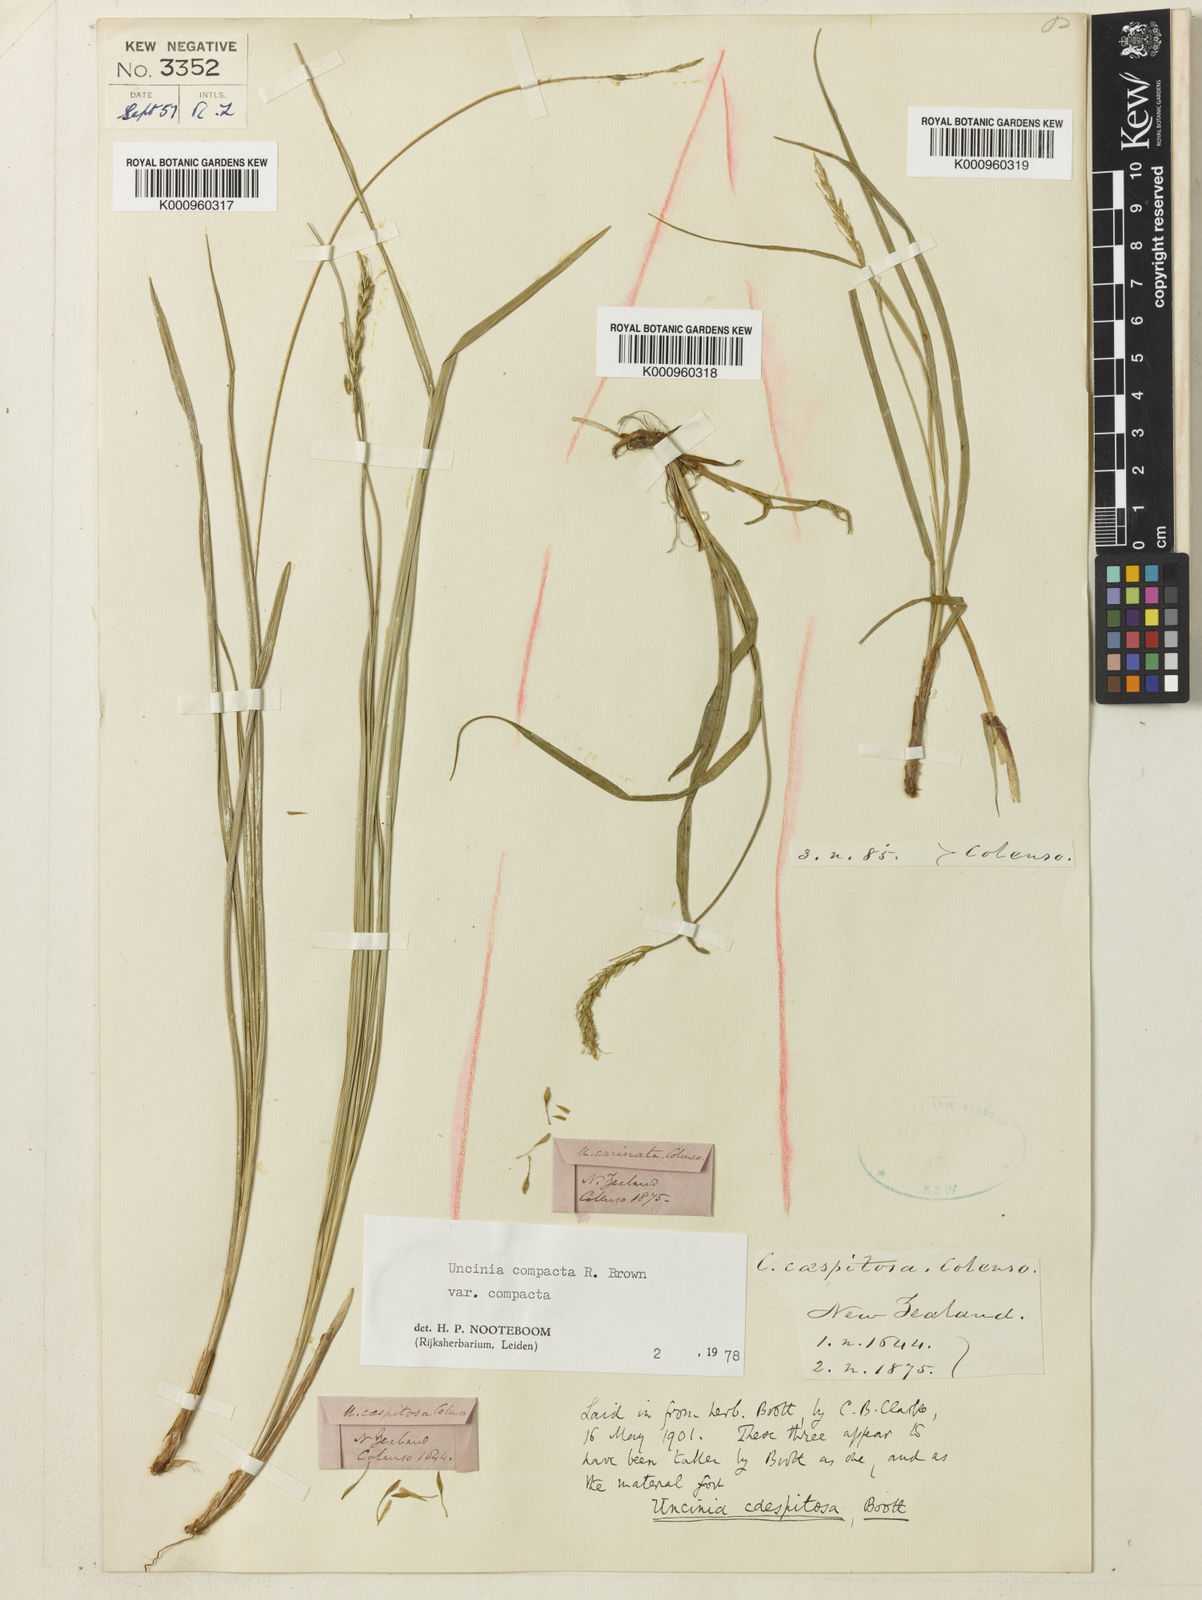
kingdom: Plantae
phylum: Tracheophyta
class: Liliopsida
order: Poales
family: Cyperaceae
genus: Carex
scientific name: Carex astricta
